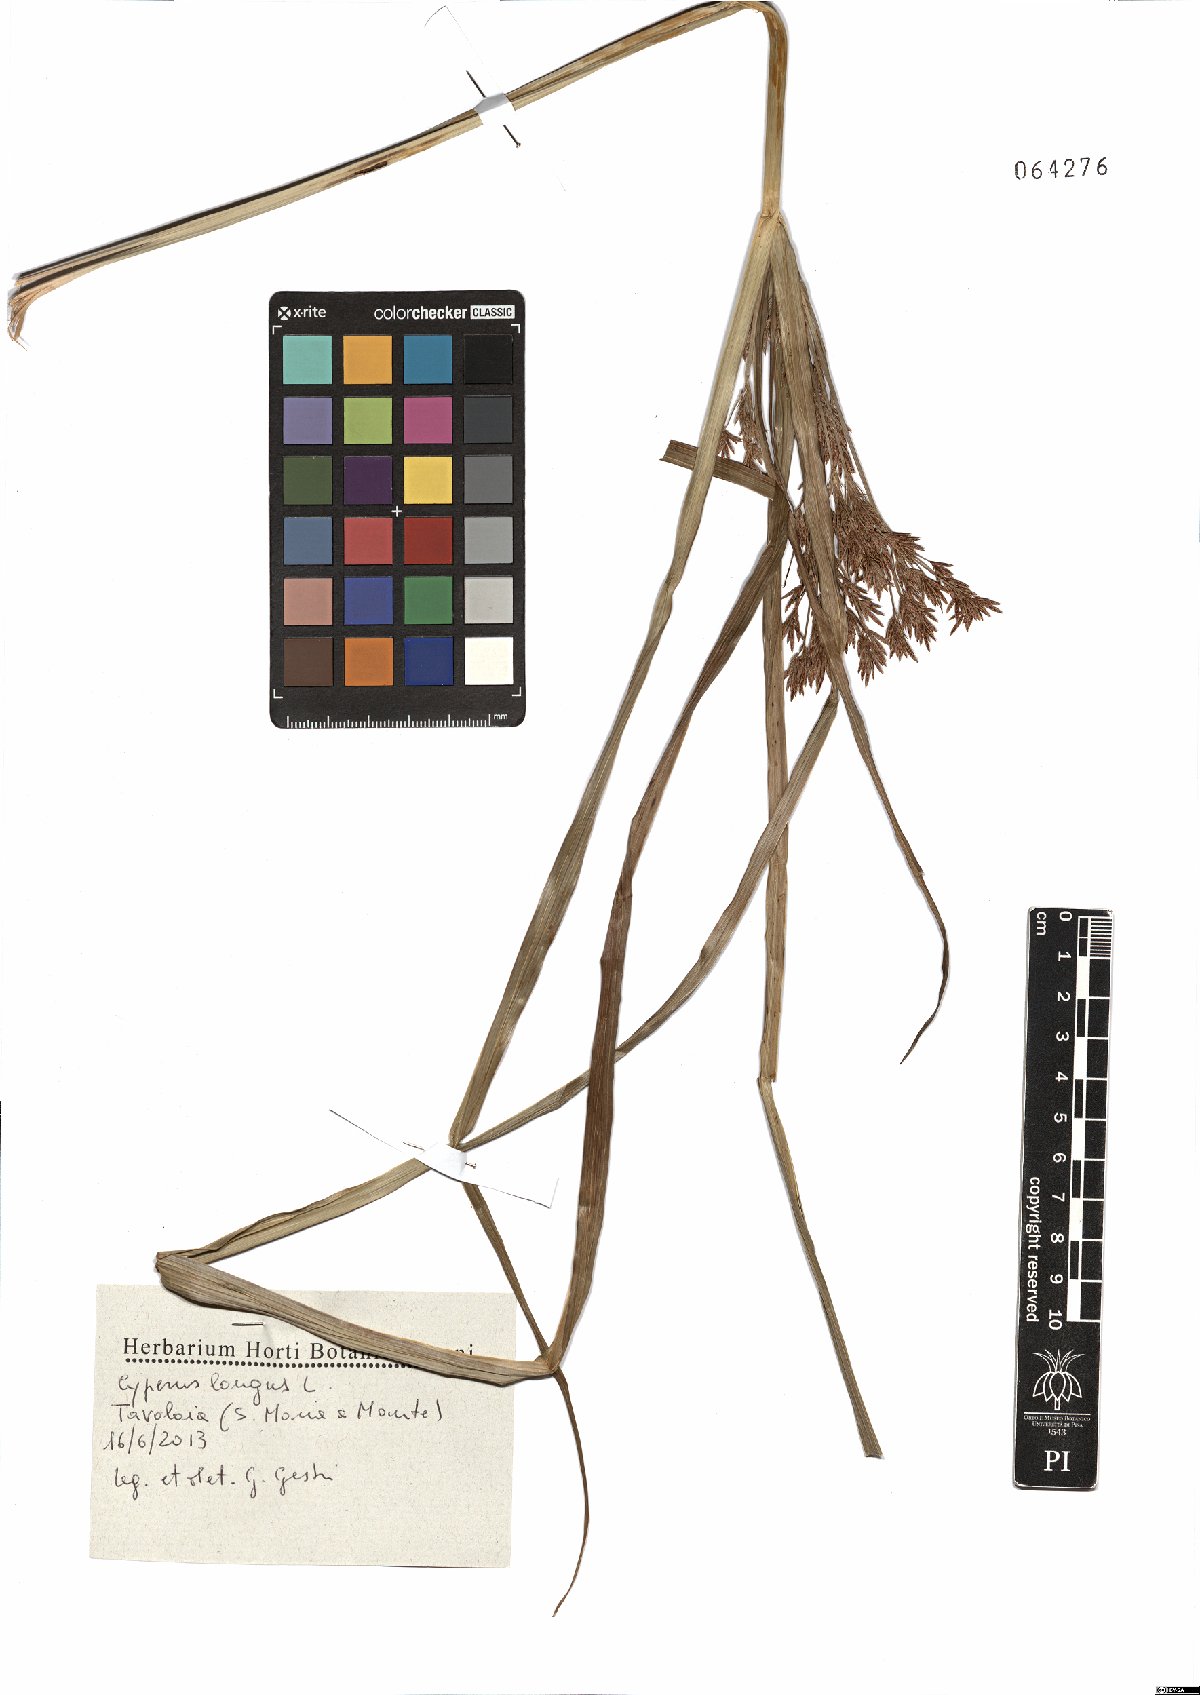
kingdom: Plantae
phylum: Tracheophyta
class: Liliopsida
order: Poales
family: Cyperaceae
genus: Cyperus
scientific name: Cyperus longus
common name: Galingale
